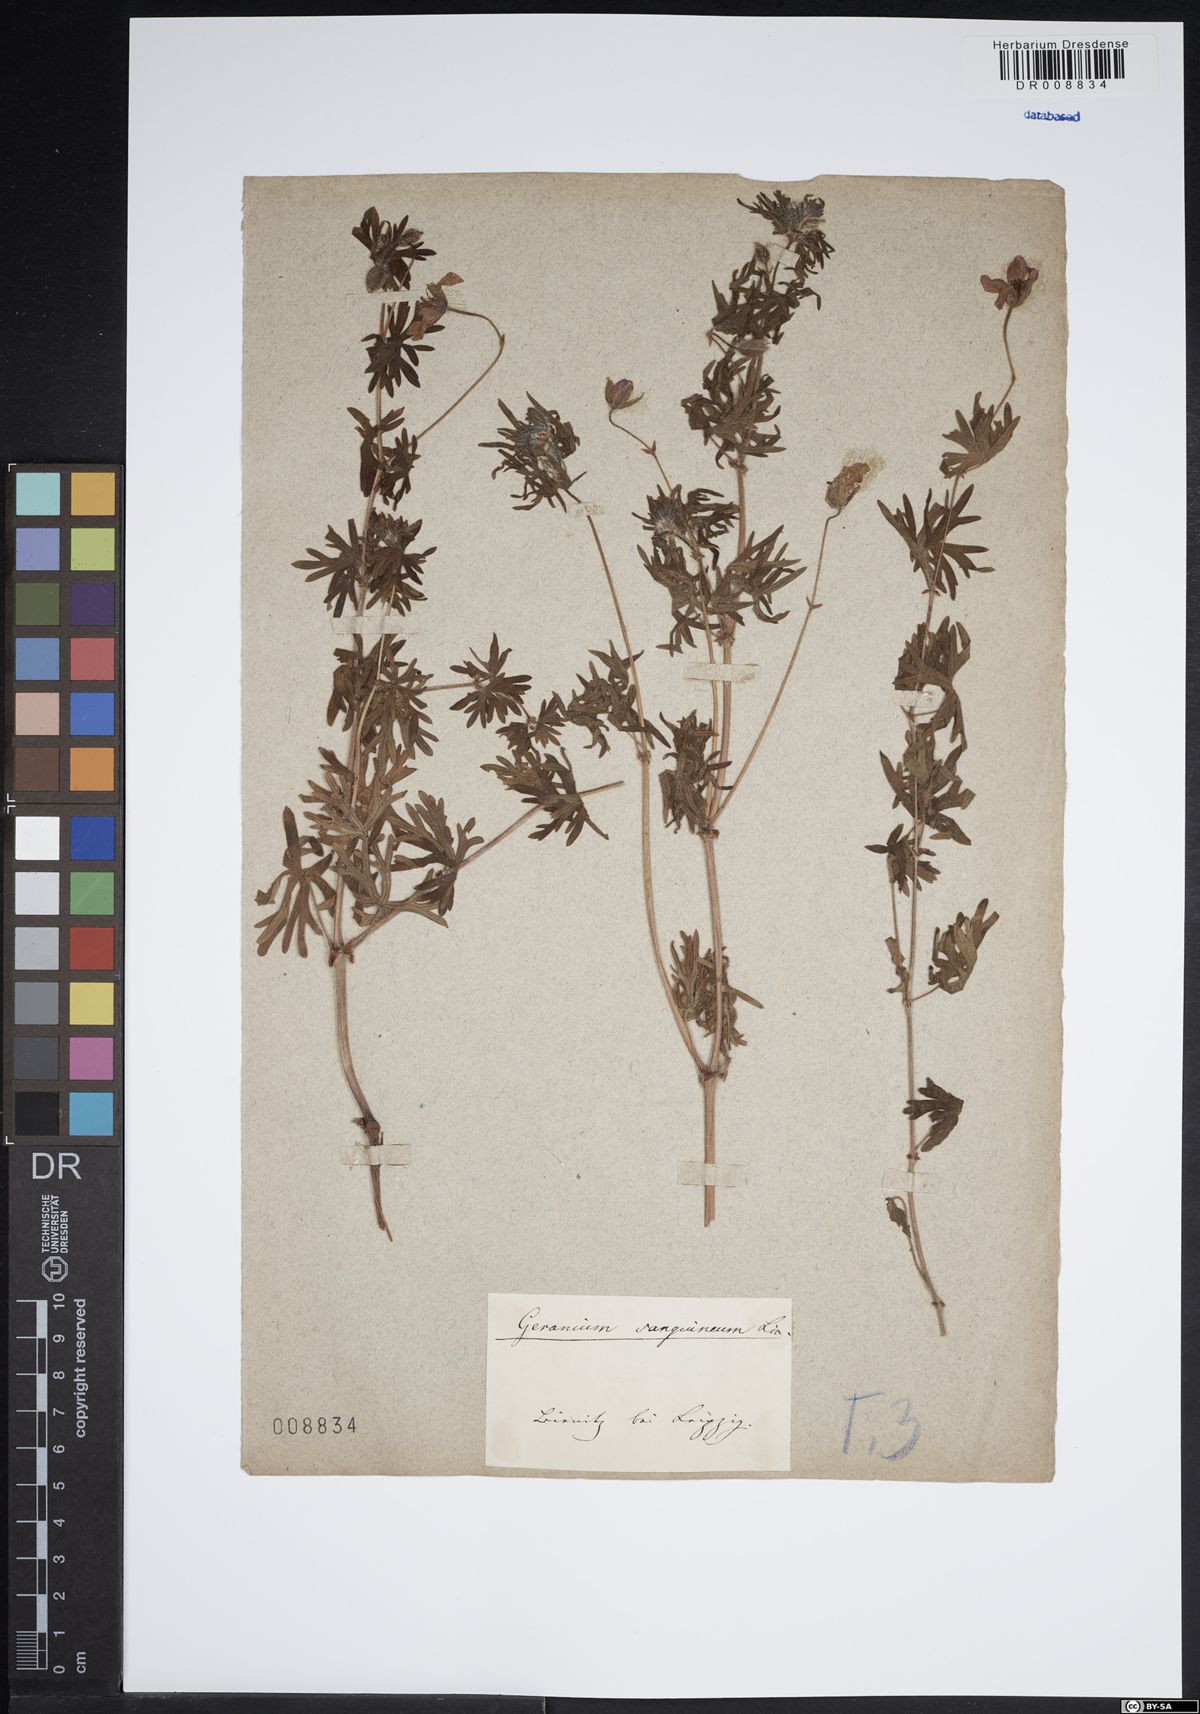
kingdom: Plantae
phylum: Tracheophyta
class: Magnoliopsida
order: Geraniales
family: Geraniaceae
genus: Geranium
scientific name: Geranium sanguineum
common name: Bloody crane's-bill
